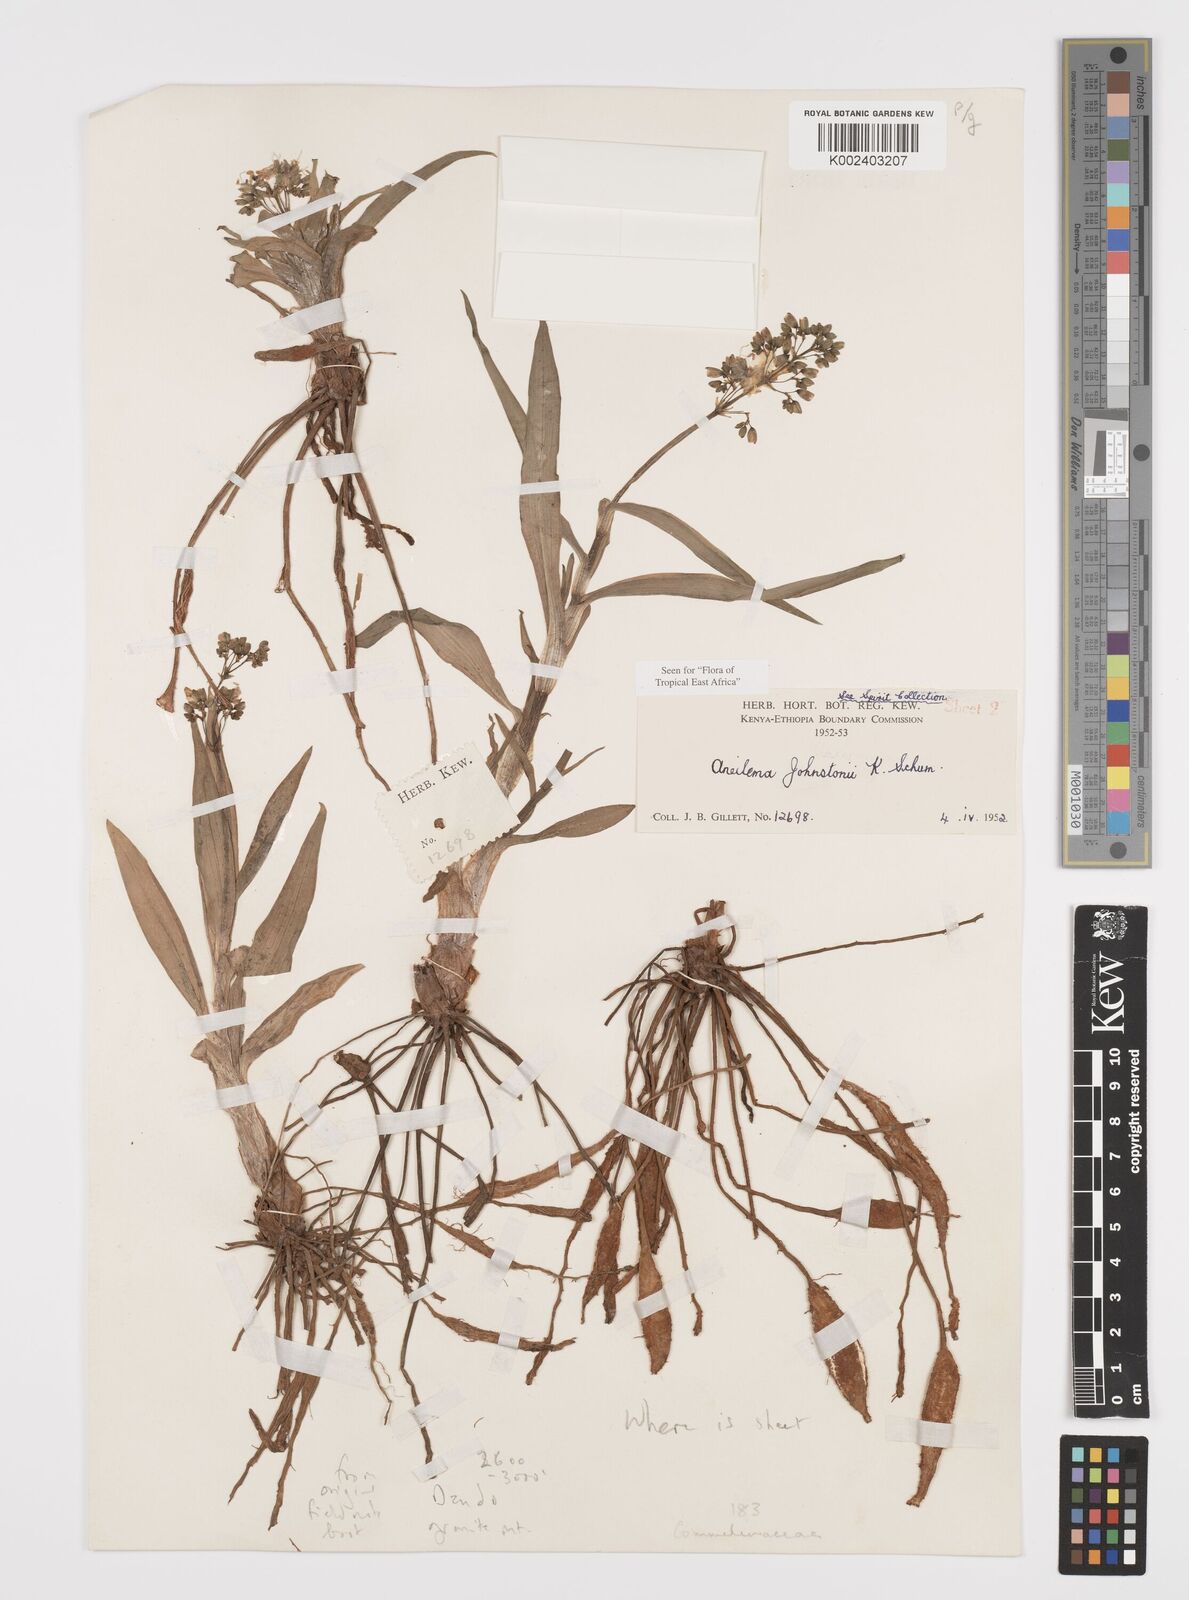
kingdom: Plantae
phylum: Tracheophyta
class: Liliopsida
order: Commelinales
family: Commelinaceae
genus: Aneilema
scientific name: Aneilema johnstonii
